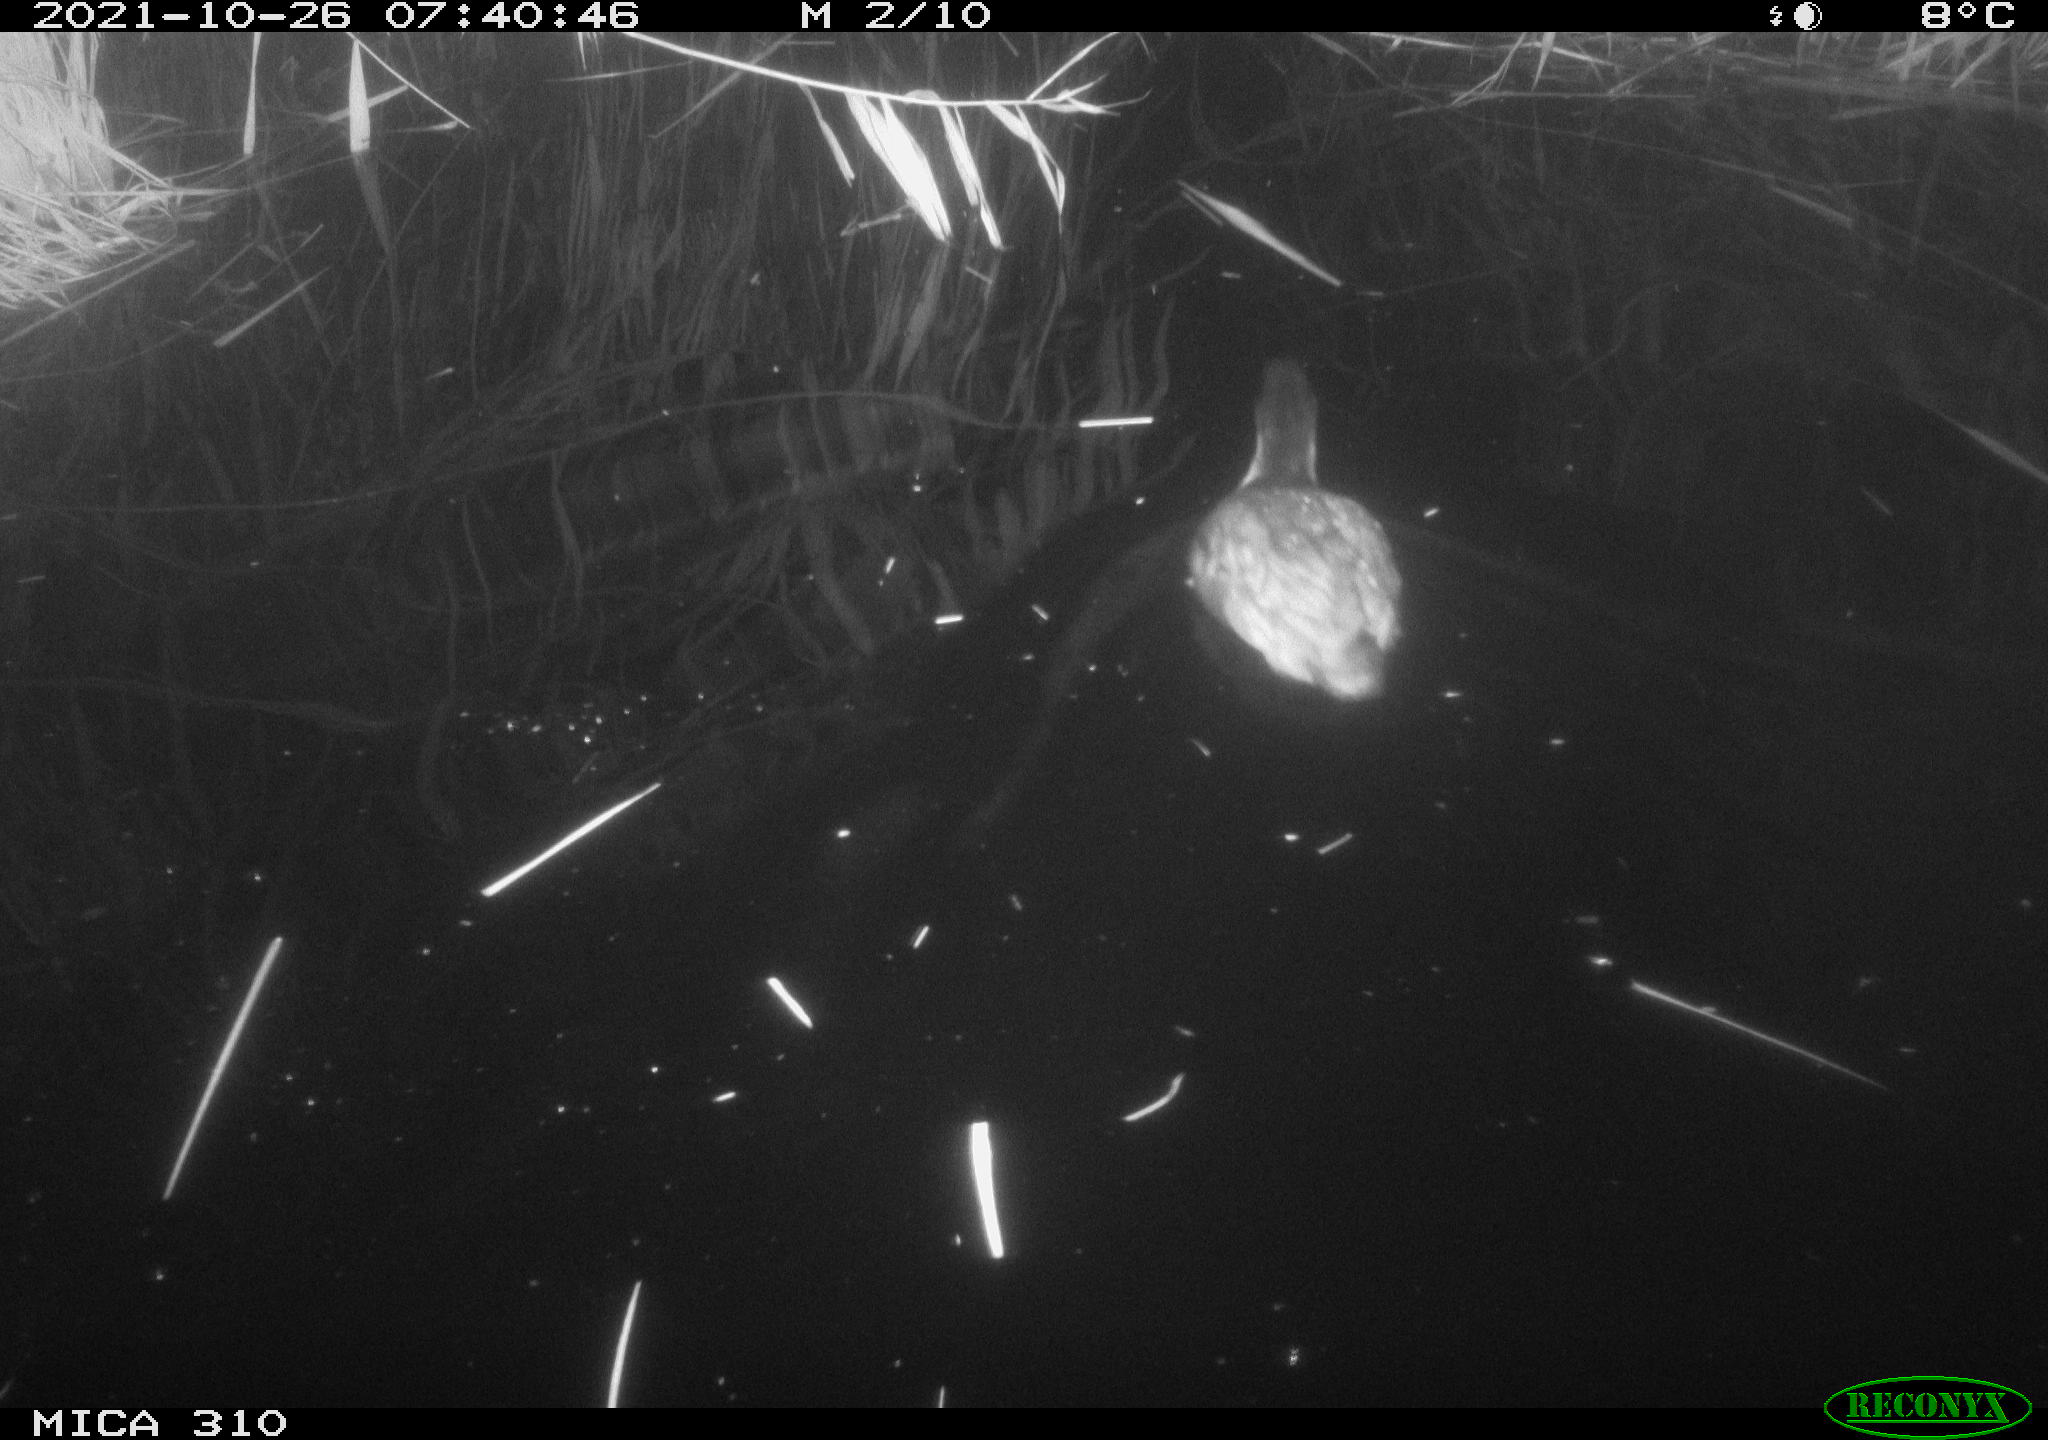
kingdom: Animalia
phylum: Chordata
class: Aves
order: Gruiformes
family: Rallidae
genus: Fulica
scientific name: Fulica atra
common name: Eurasian coot
